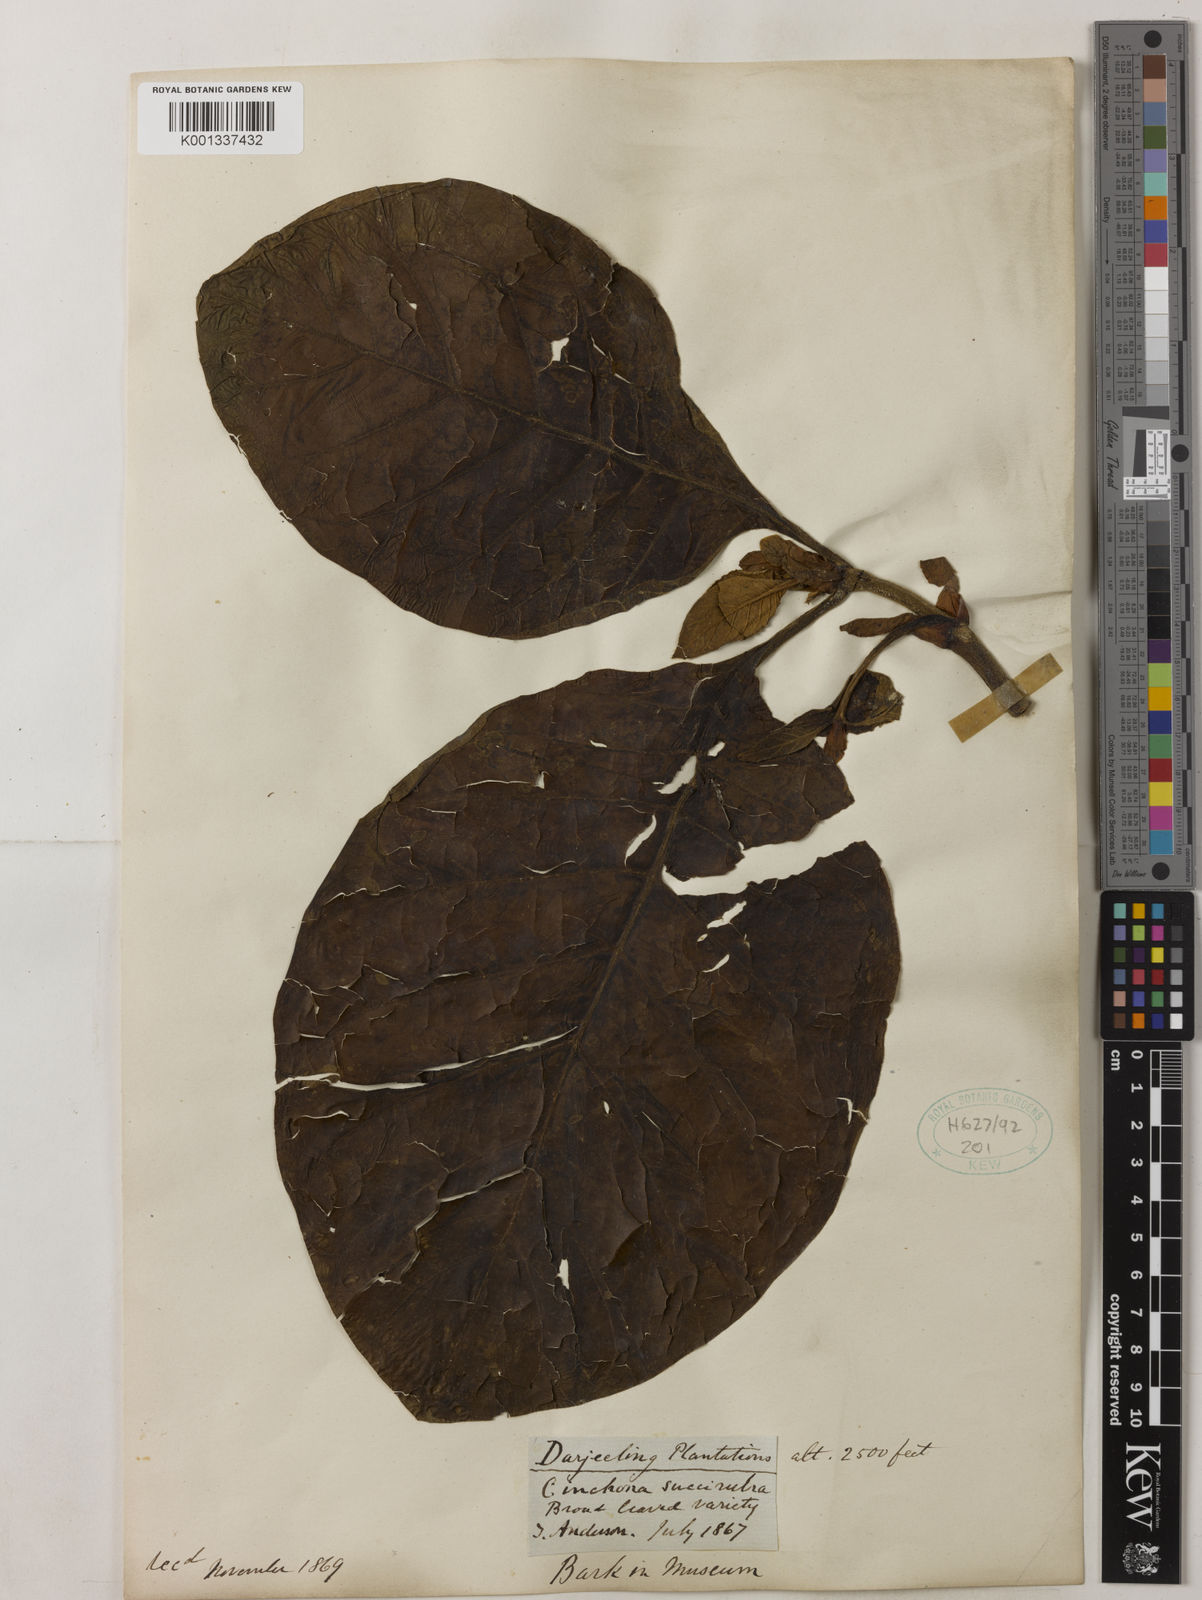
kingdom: Plantae
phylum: Tracheophyta
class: Magnoliopsida
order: Gentianales
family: Rubiaceae
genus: Cinchona
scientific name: Cinchona pubescens
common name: Quinine
